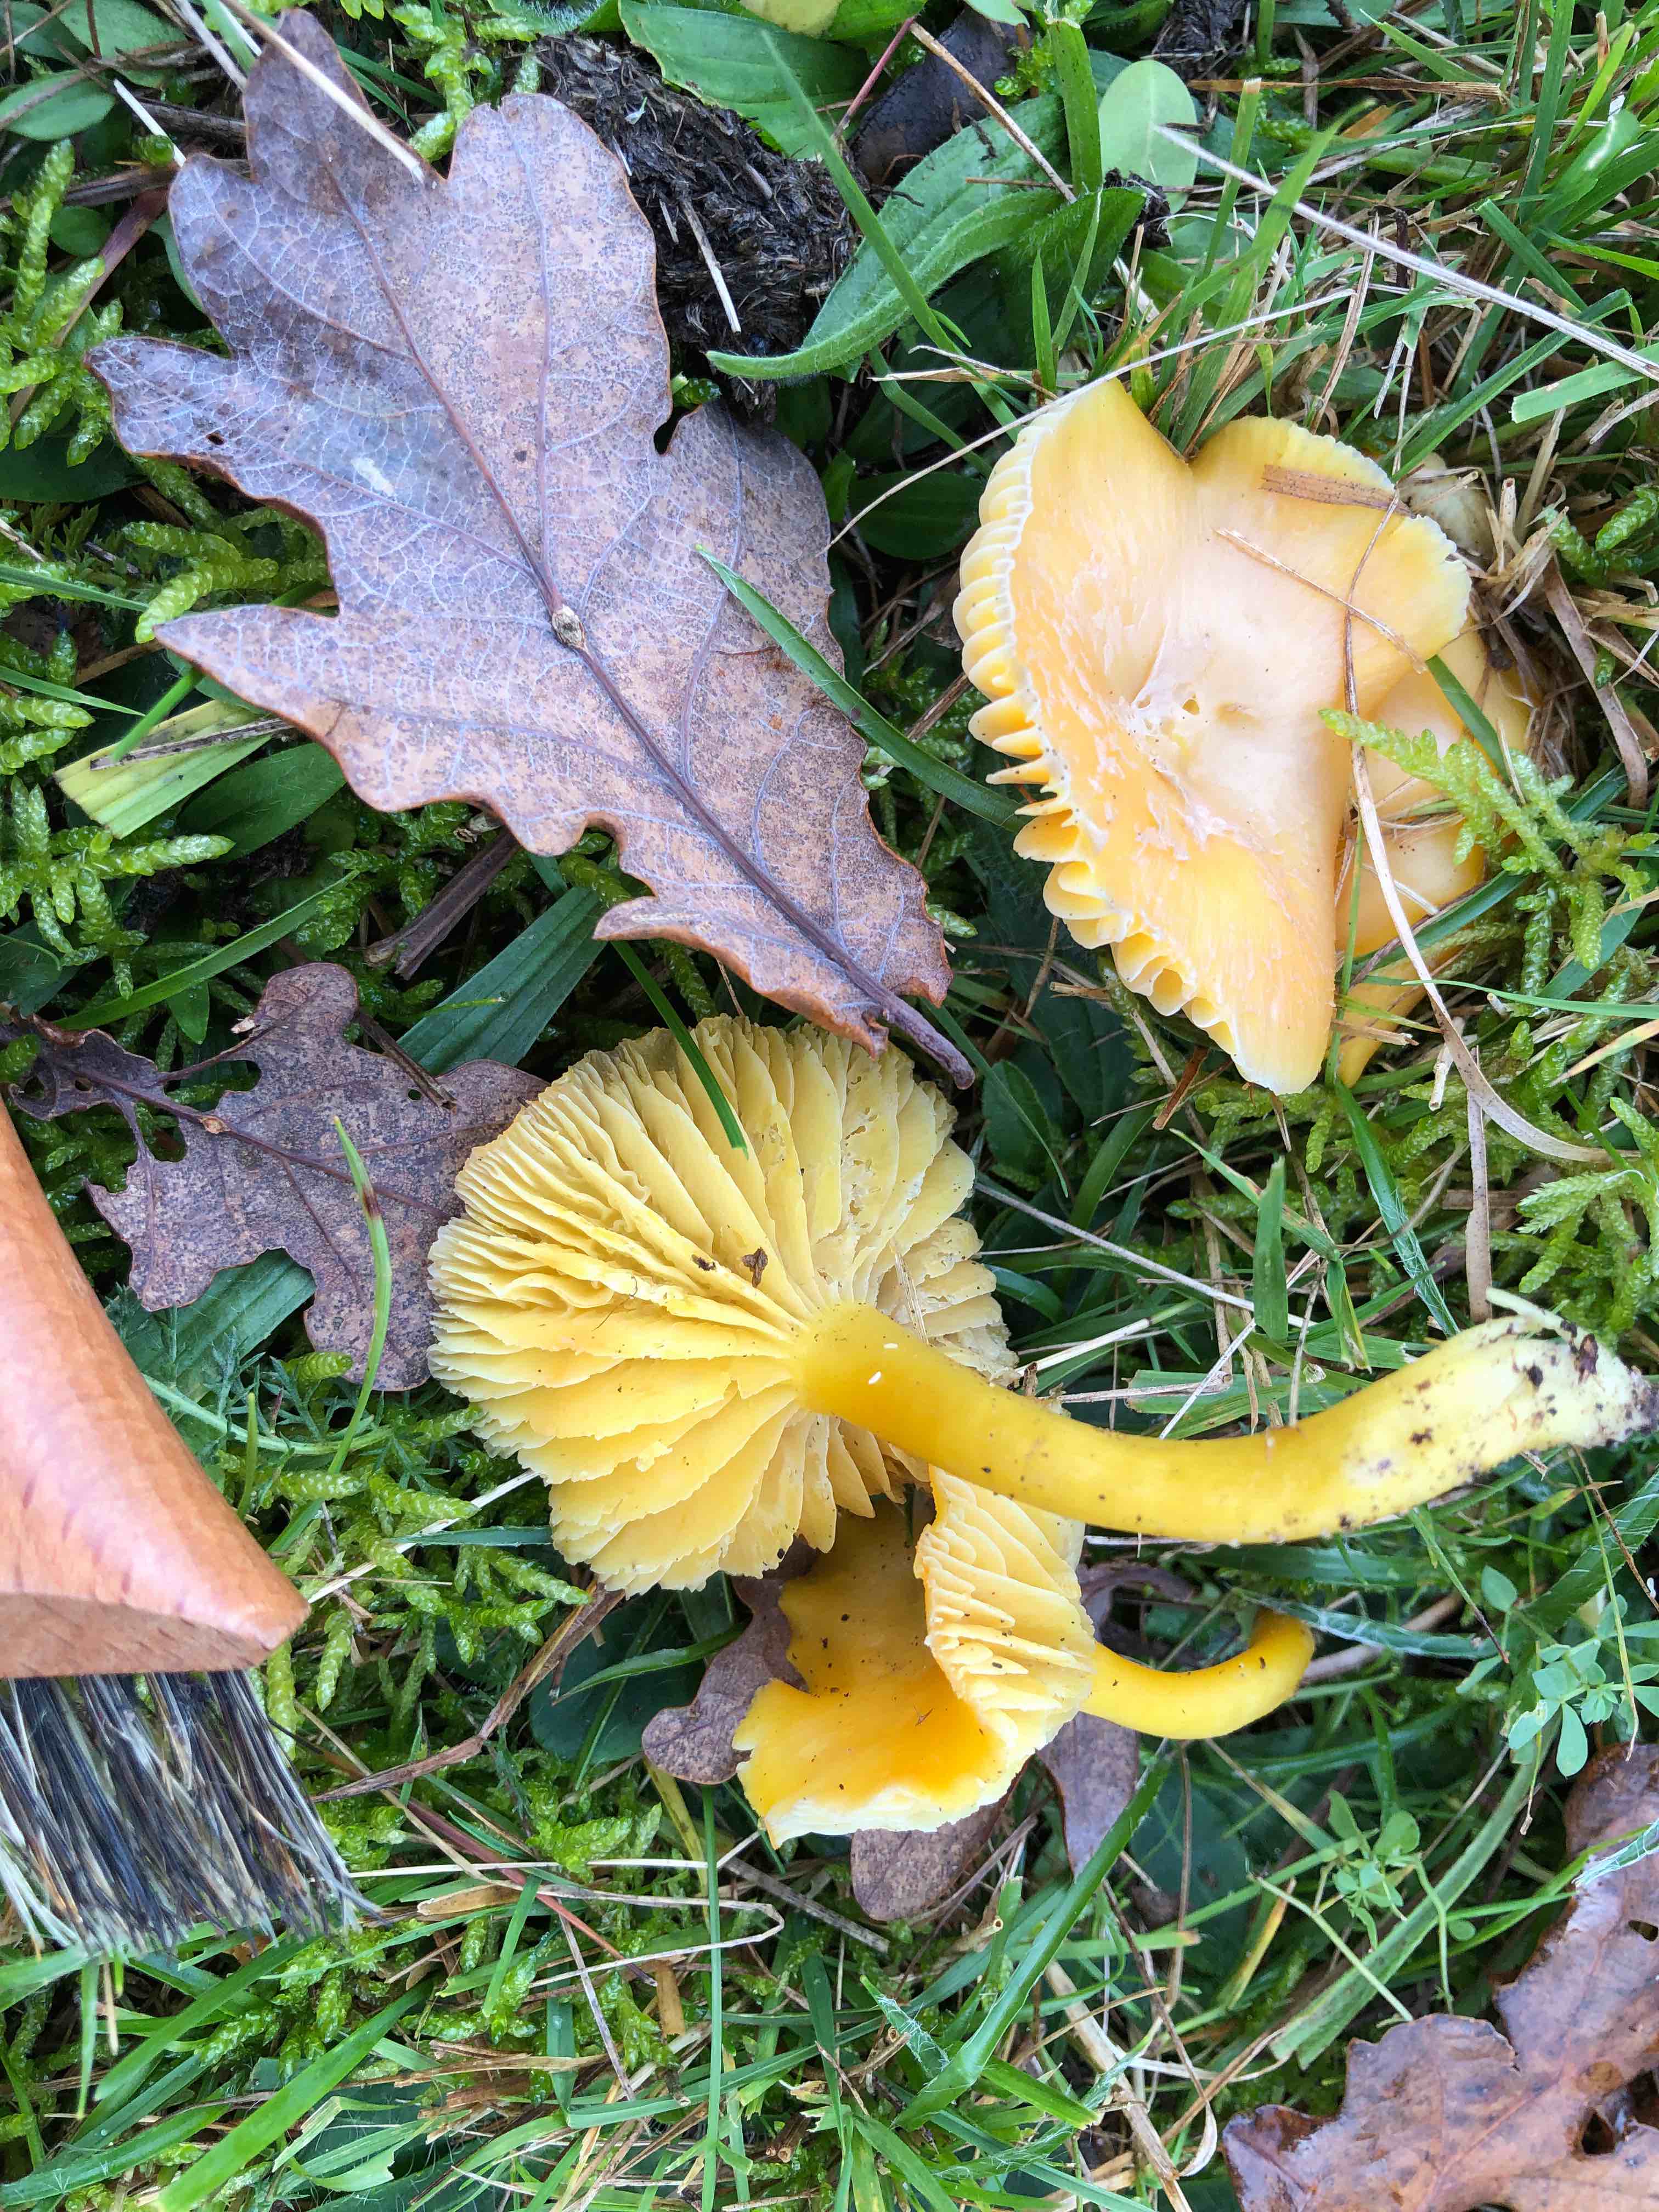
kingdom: Fungi
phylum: Basidiomycota
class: Agaricomycetes
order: Agaricales
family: Hygrophoraceae
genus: Hygrocybe
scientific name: Hygrocybe chlorophana
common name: gul vokshat
